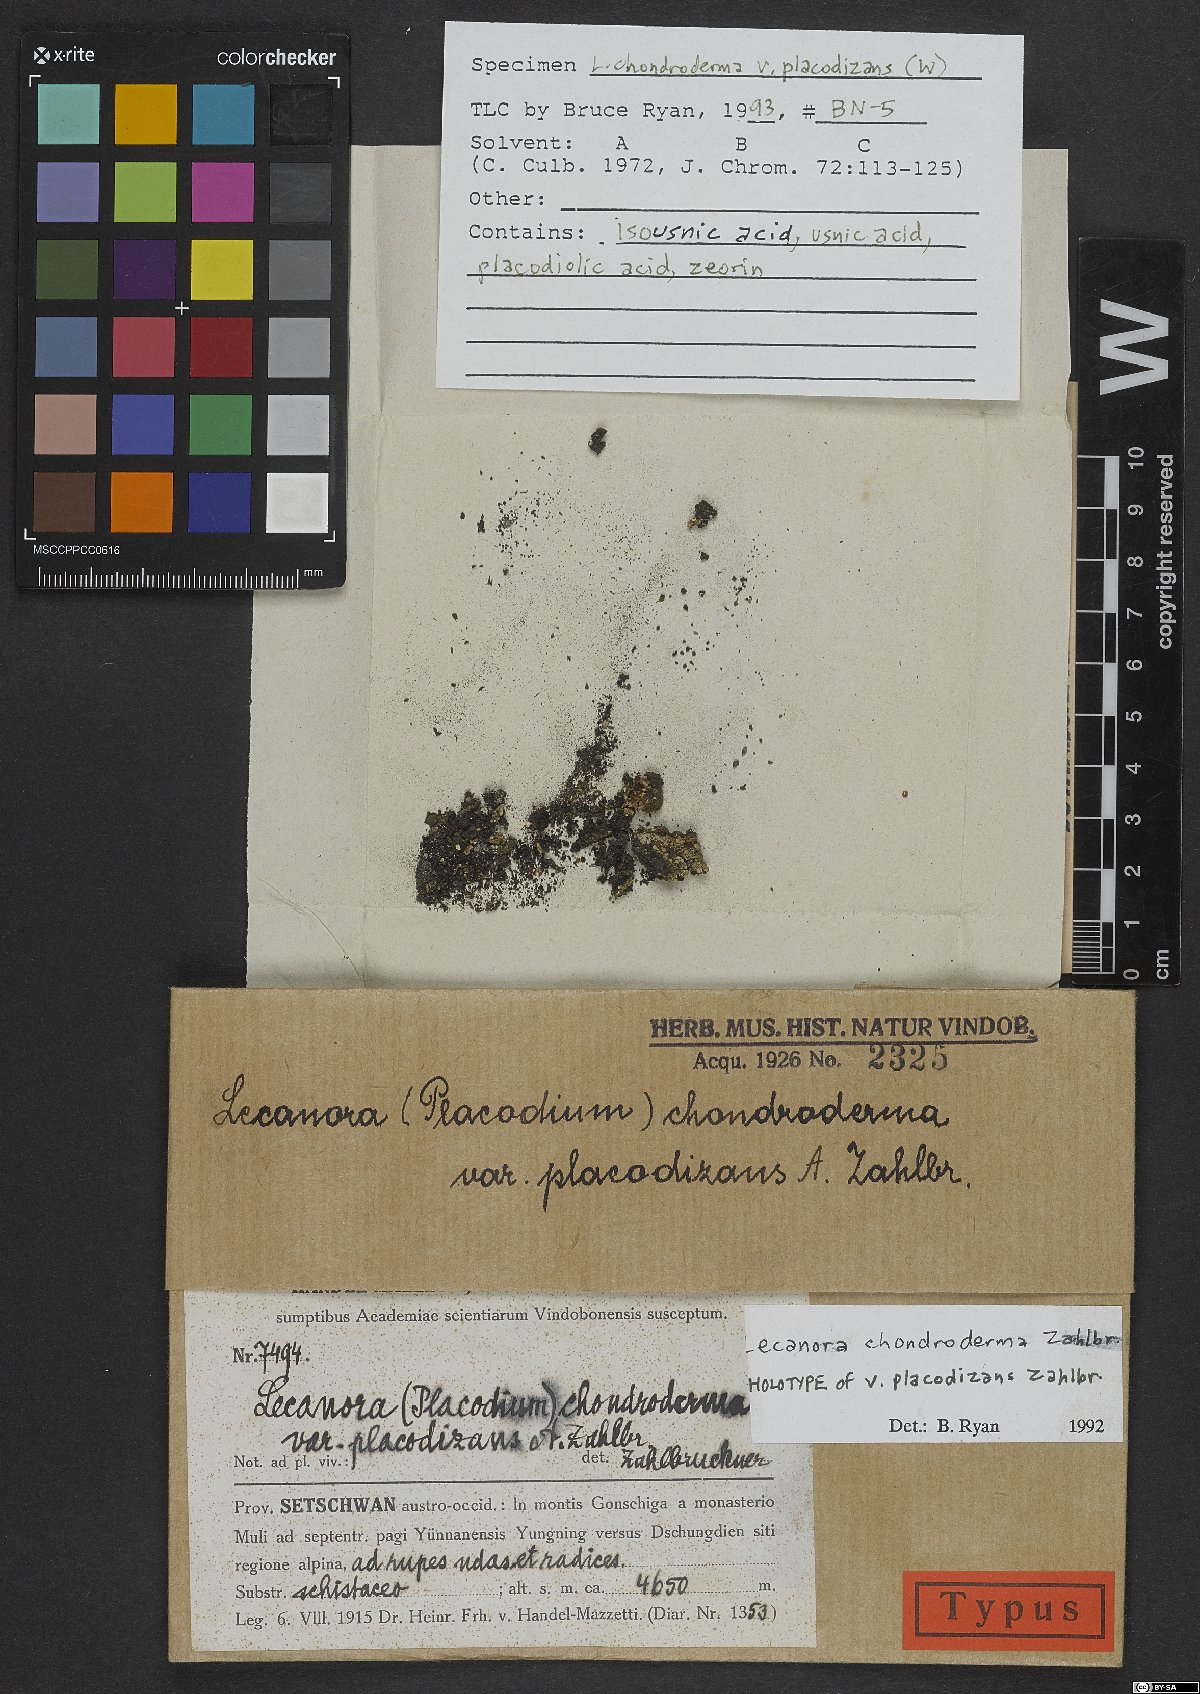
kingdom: Fungi
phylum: Ascomycota
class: Lecanoromycetes
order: Lecanorales
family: Lecanoraceae
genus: Lecanora
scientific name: Lecanora chondroderma
